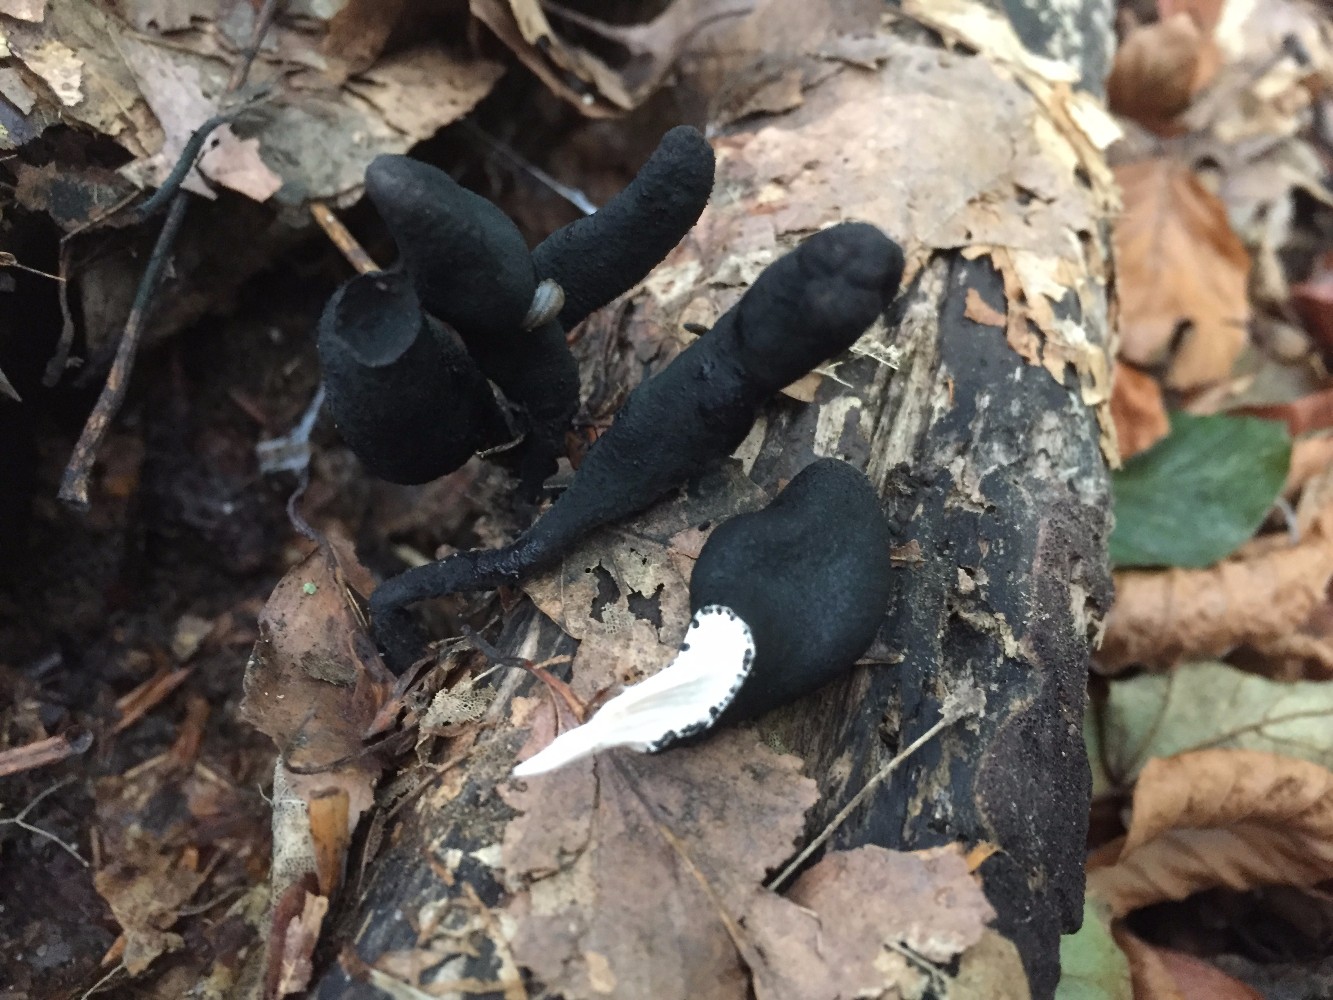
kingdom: Fungi
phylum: Ascomycota
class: Sordariomycetes
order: Xylariales
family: Xylariaceae
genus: Xylaria
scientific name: Xylaria longipes
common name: slank stødsvamp
